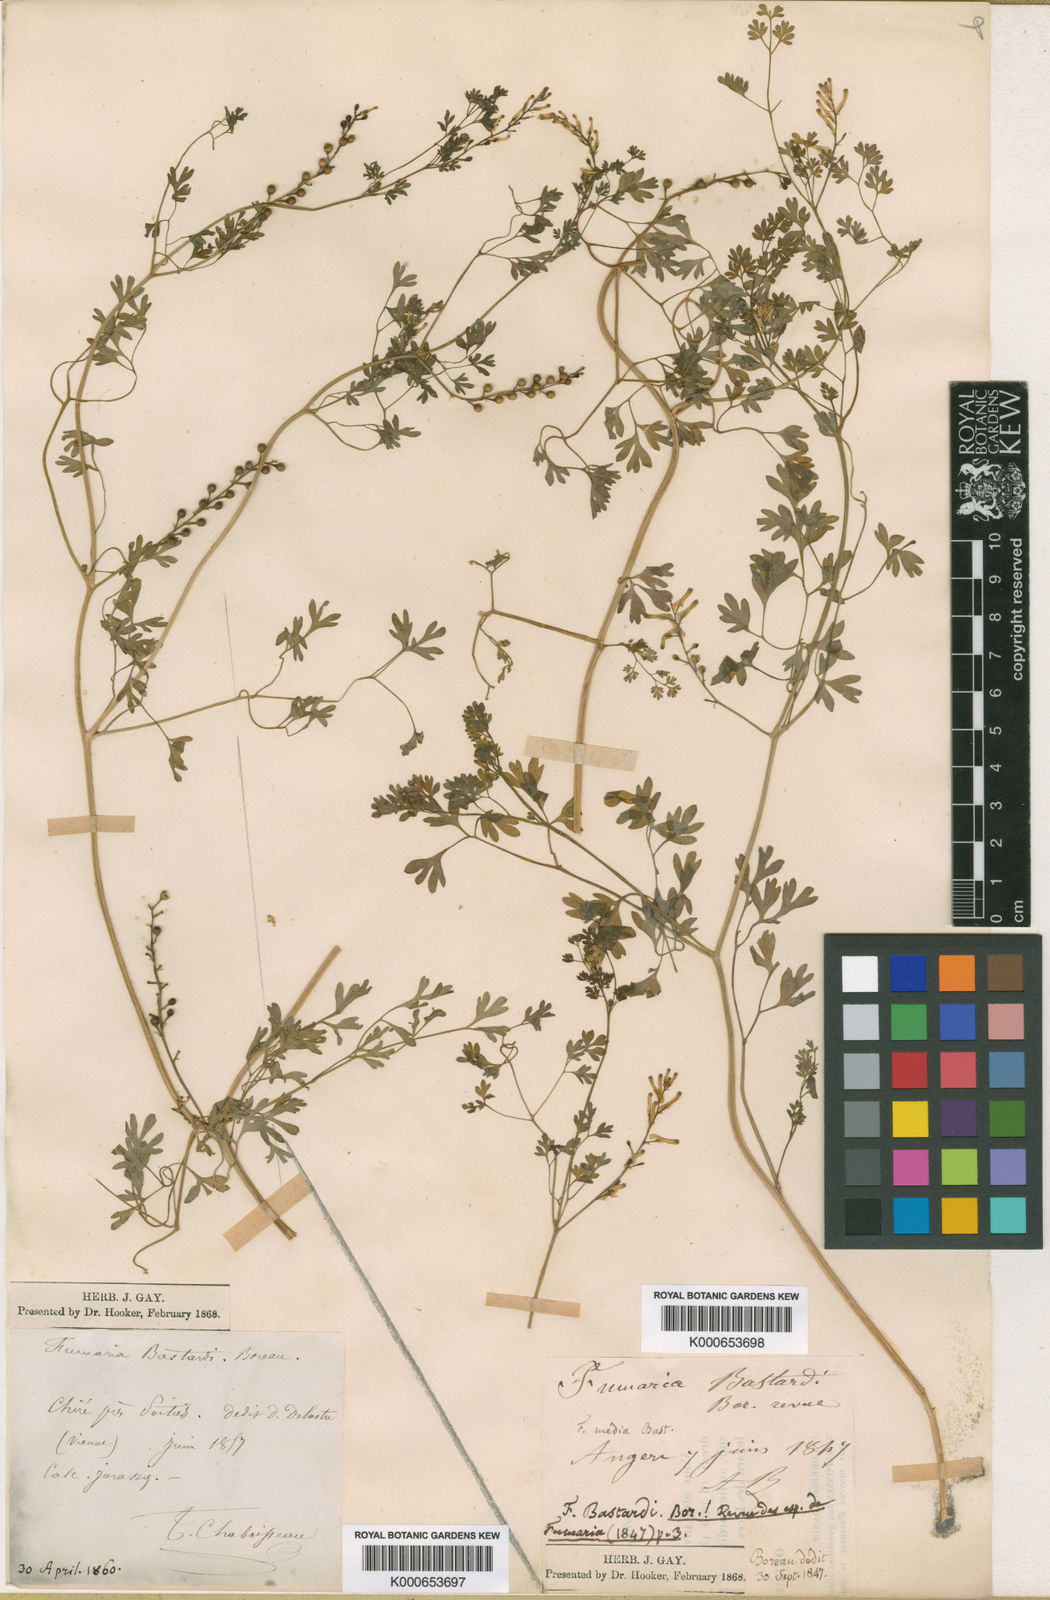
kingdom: Plantae
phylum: Tracheophyta
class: Magnoliopsida
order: Ranunculales
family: Papaveraceae
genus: Fumaria
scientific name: Fumaria bastardii
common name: Tall ramping-fumitory
